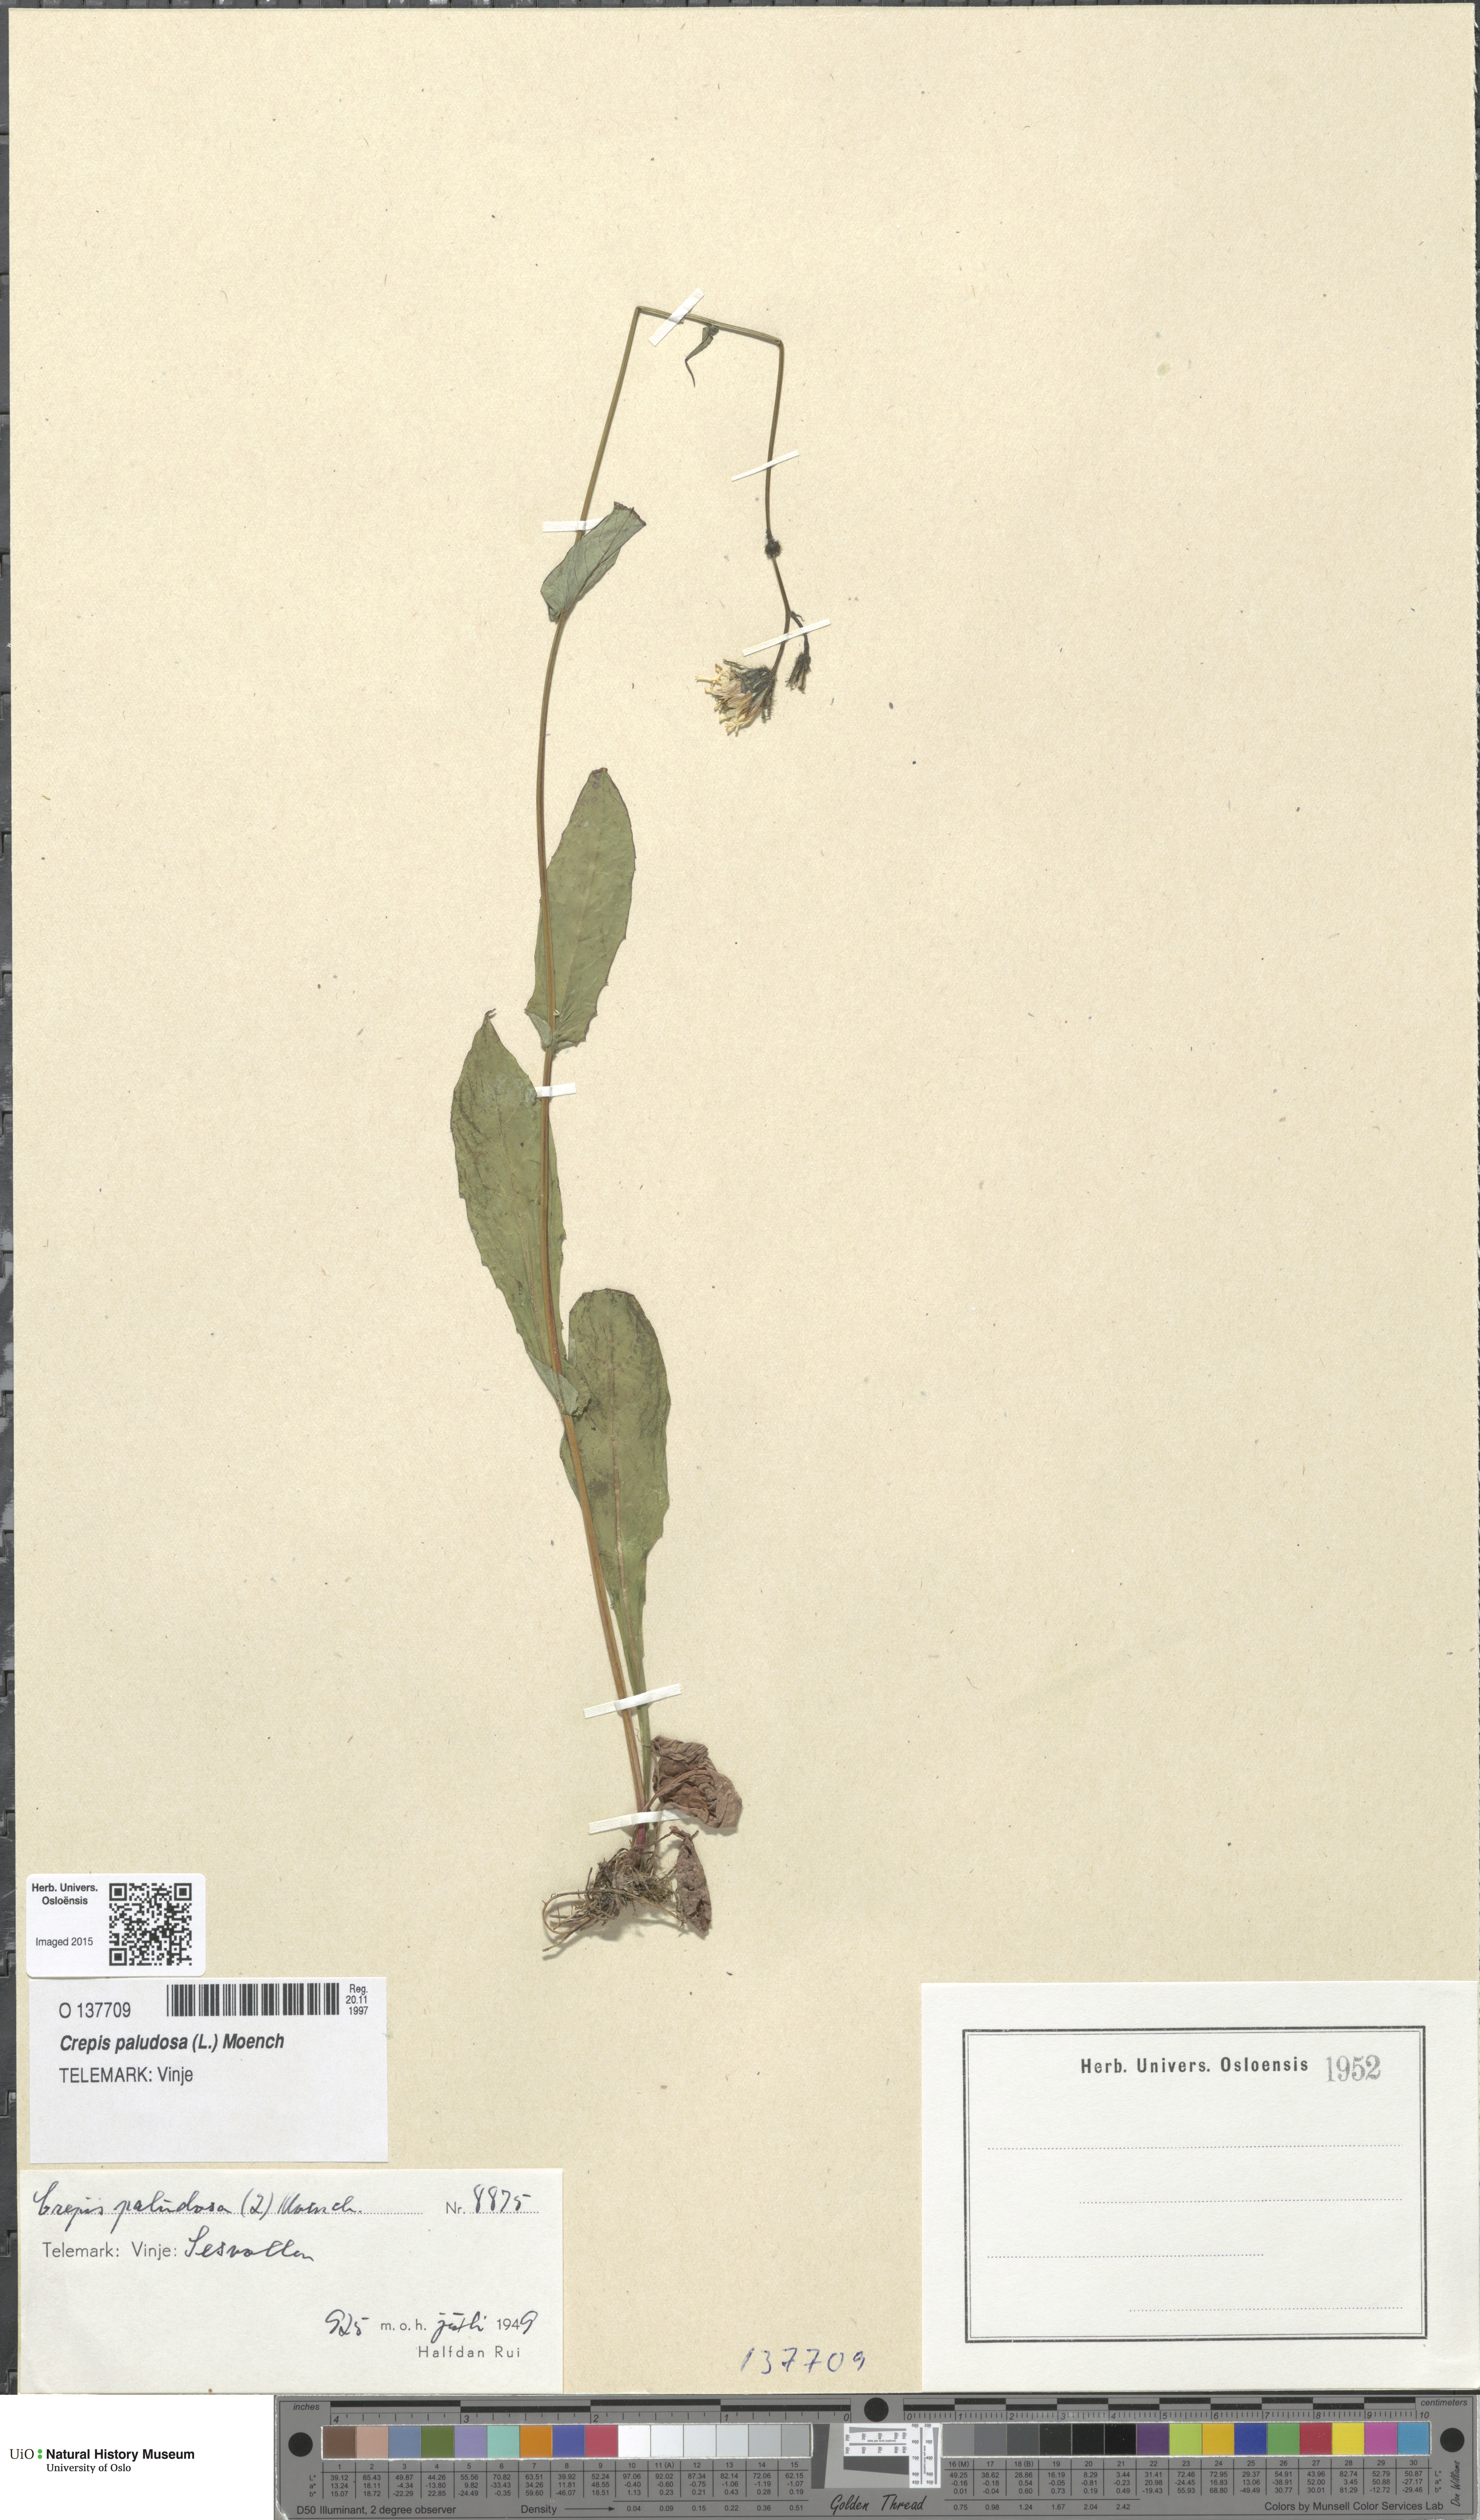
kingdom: Plantae
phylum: Tracheophyta
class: Magnoliopsida
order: Asterales
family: Asteraceae
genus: Crepis
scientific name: Crepis paludosa
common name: Marsh hawk's-beard
